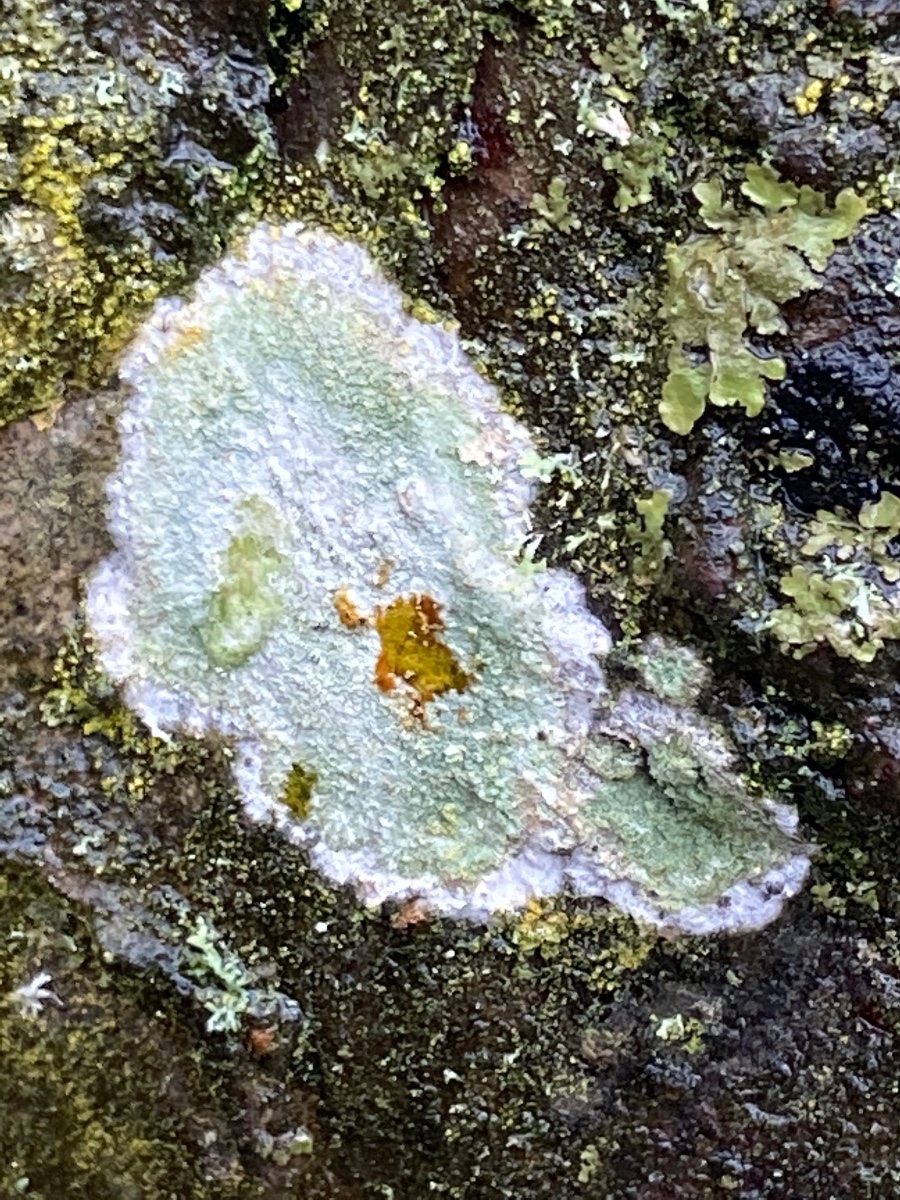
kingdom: Fungi
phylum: Ascomycota
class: Lecanoromycetes
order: Ostropales
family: Phlyctidaceae
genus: Phlyctis
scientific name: Phlyctis argena
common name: almindelig sølvlav
